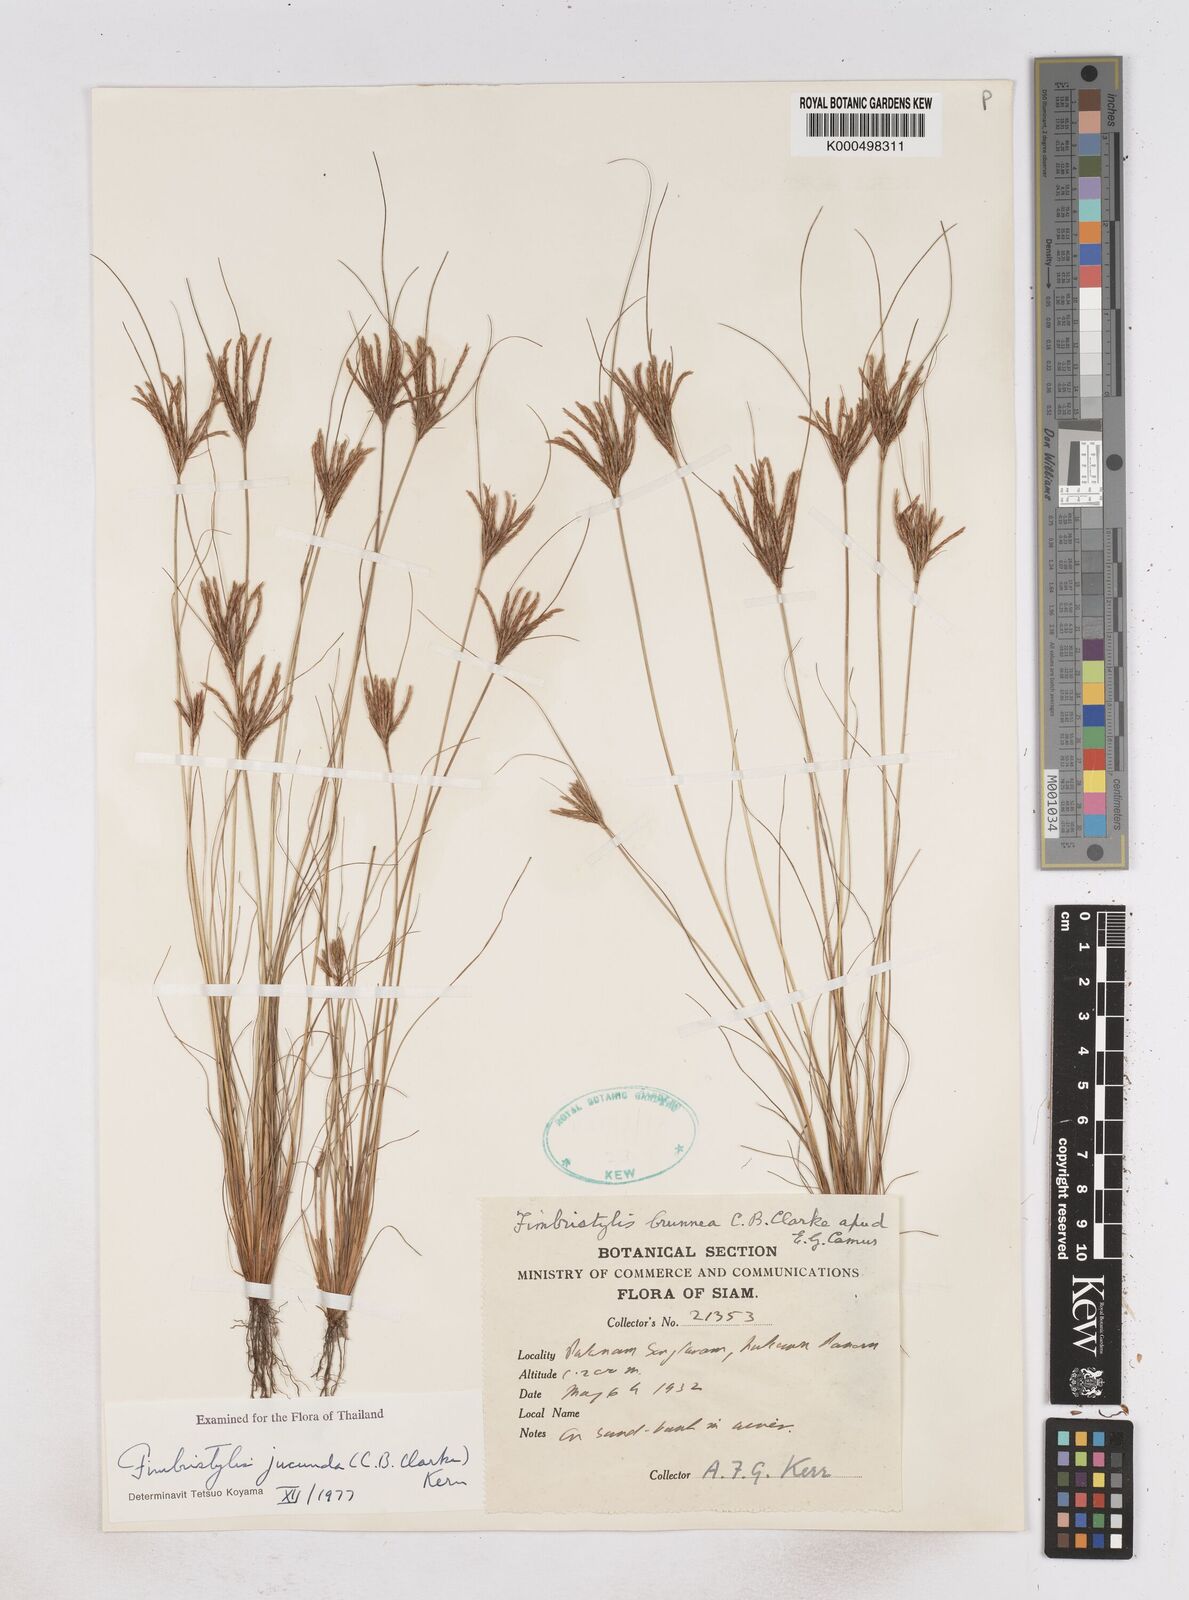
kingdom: Plantae
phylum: Tracheophyta
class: Liliopsida
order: Poales
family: Cyperaceae
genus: Fimbristylis
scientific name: Fimbristylis jucunda
